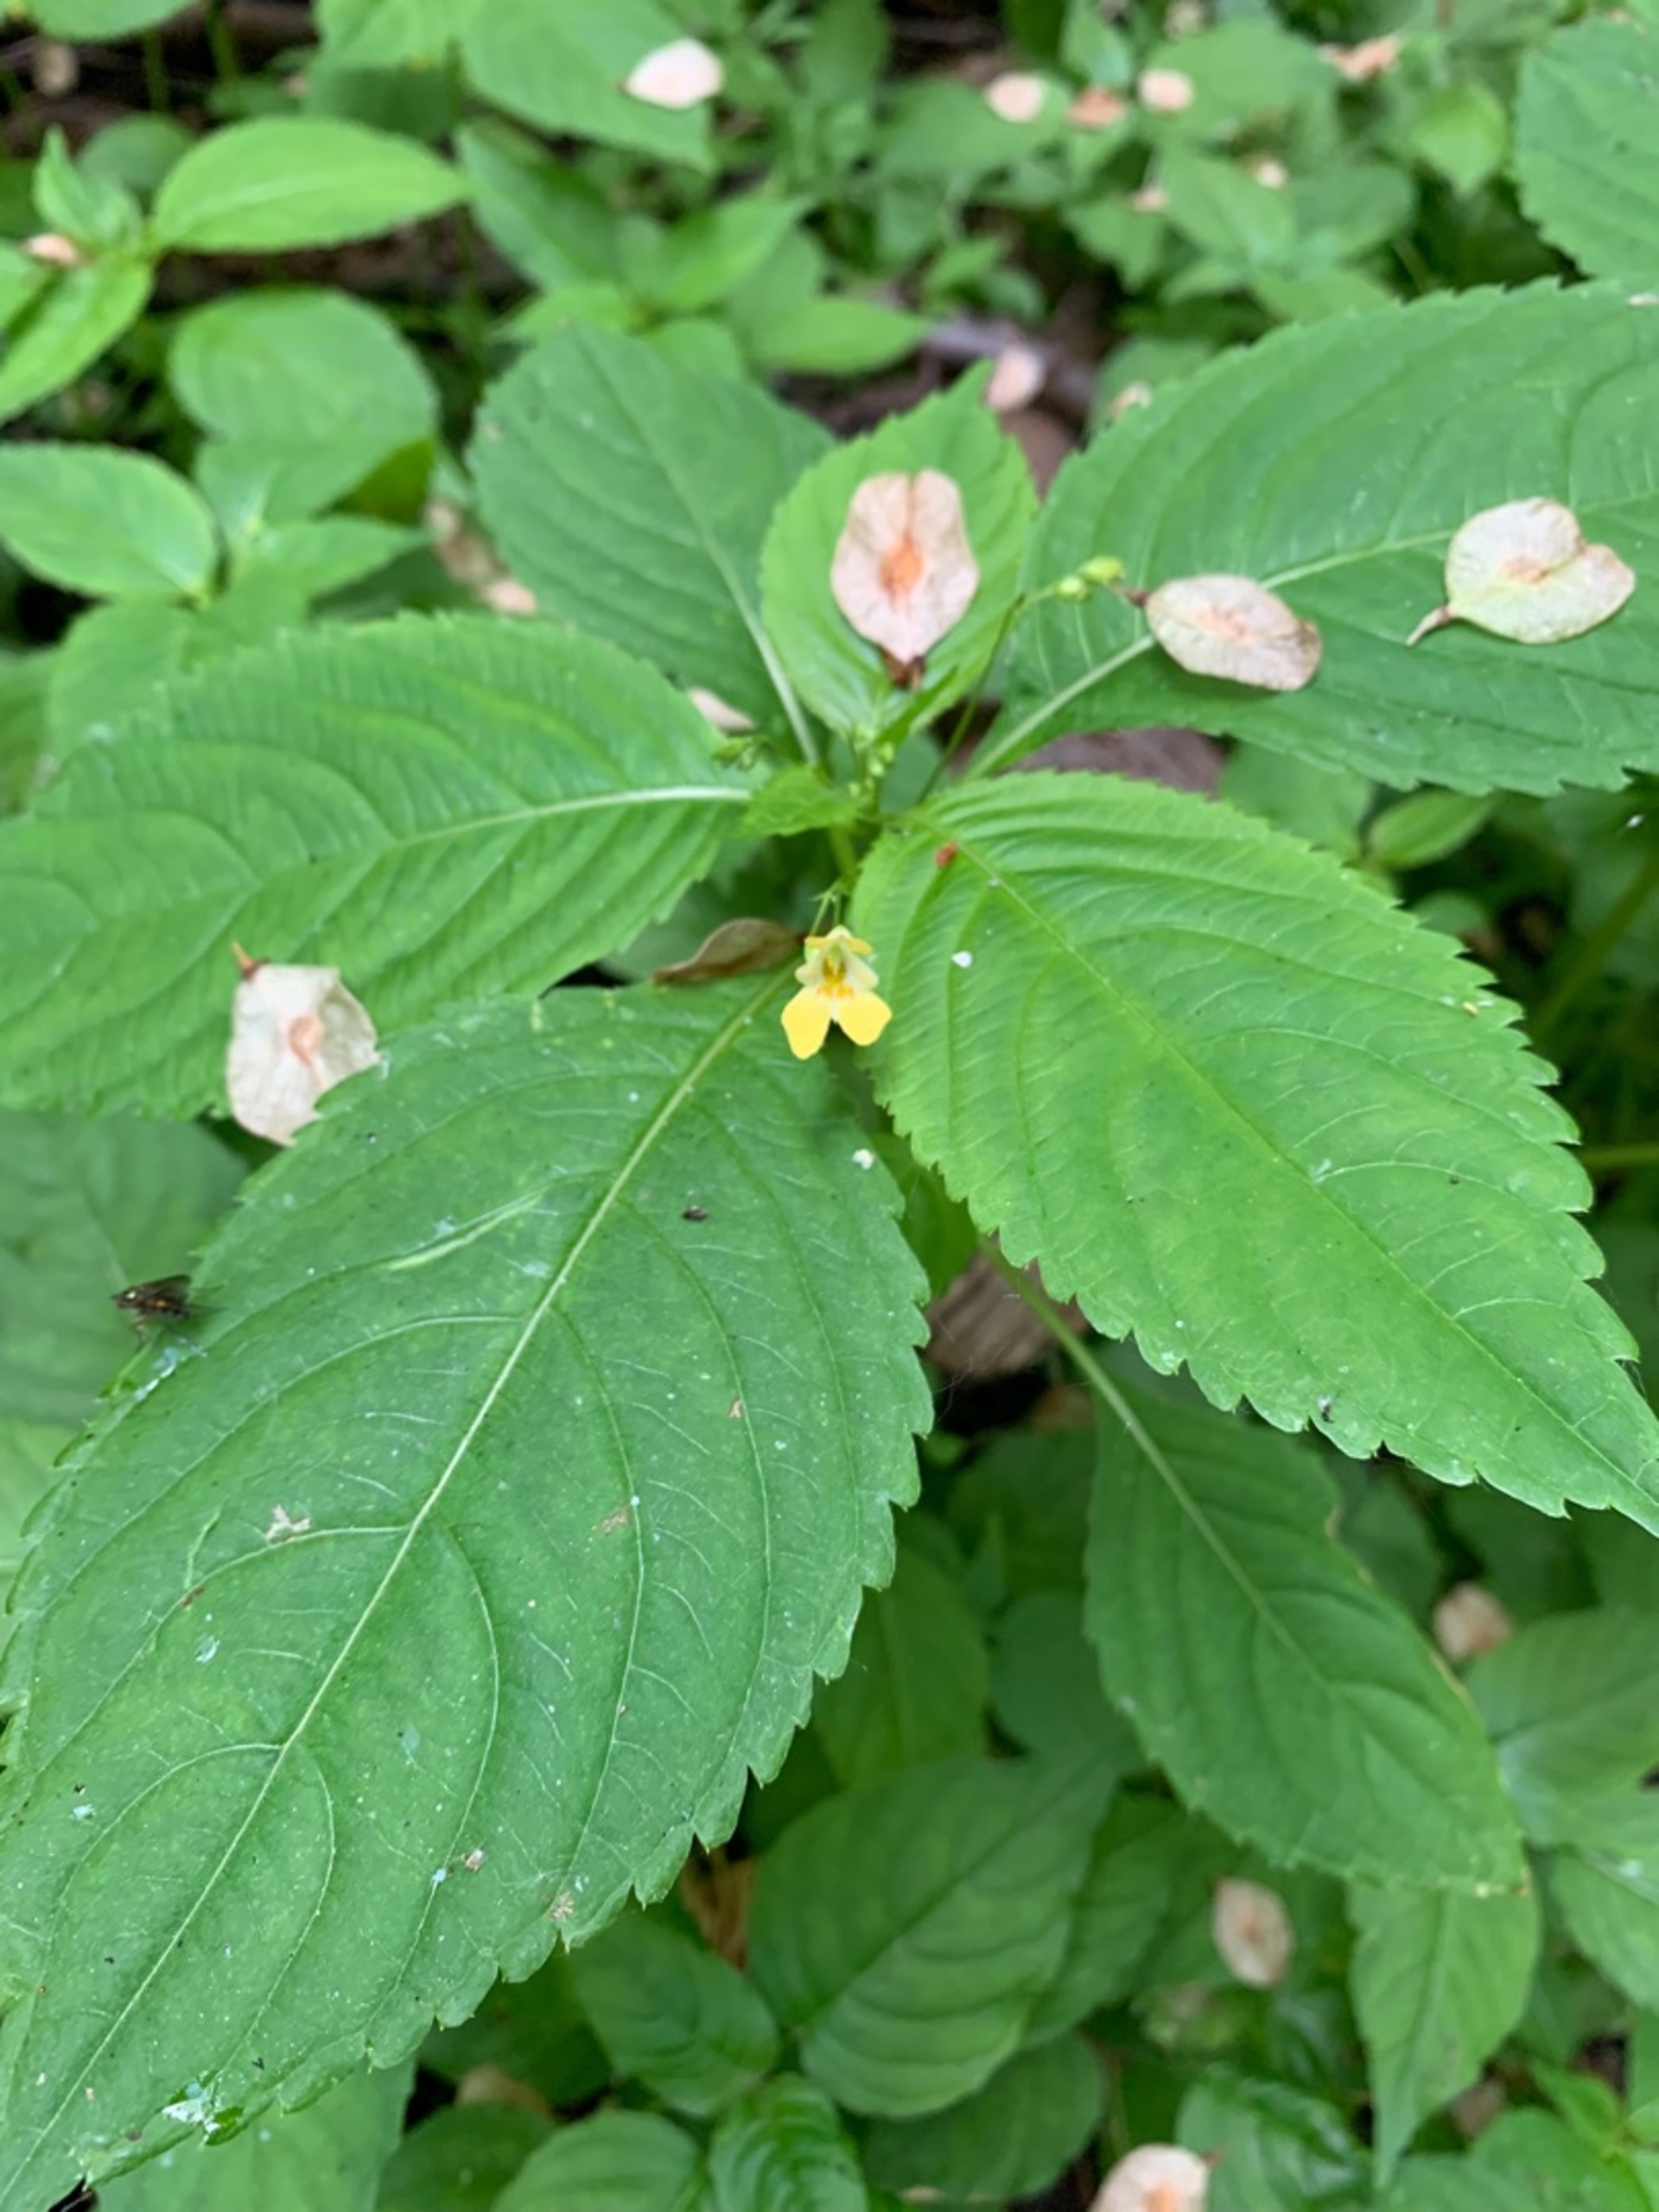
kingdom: Plantae
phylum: Tracheophyta
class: Magnoliopsida
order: Ericales
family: Balsaminaceae
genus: Impatiens
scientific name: Impatiens parviflora
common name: Småblomstret balsamin
